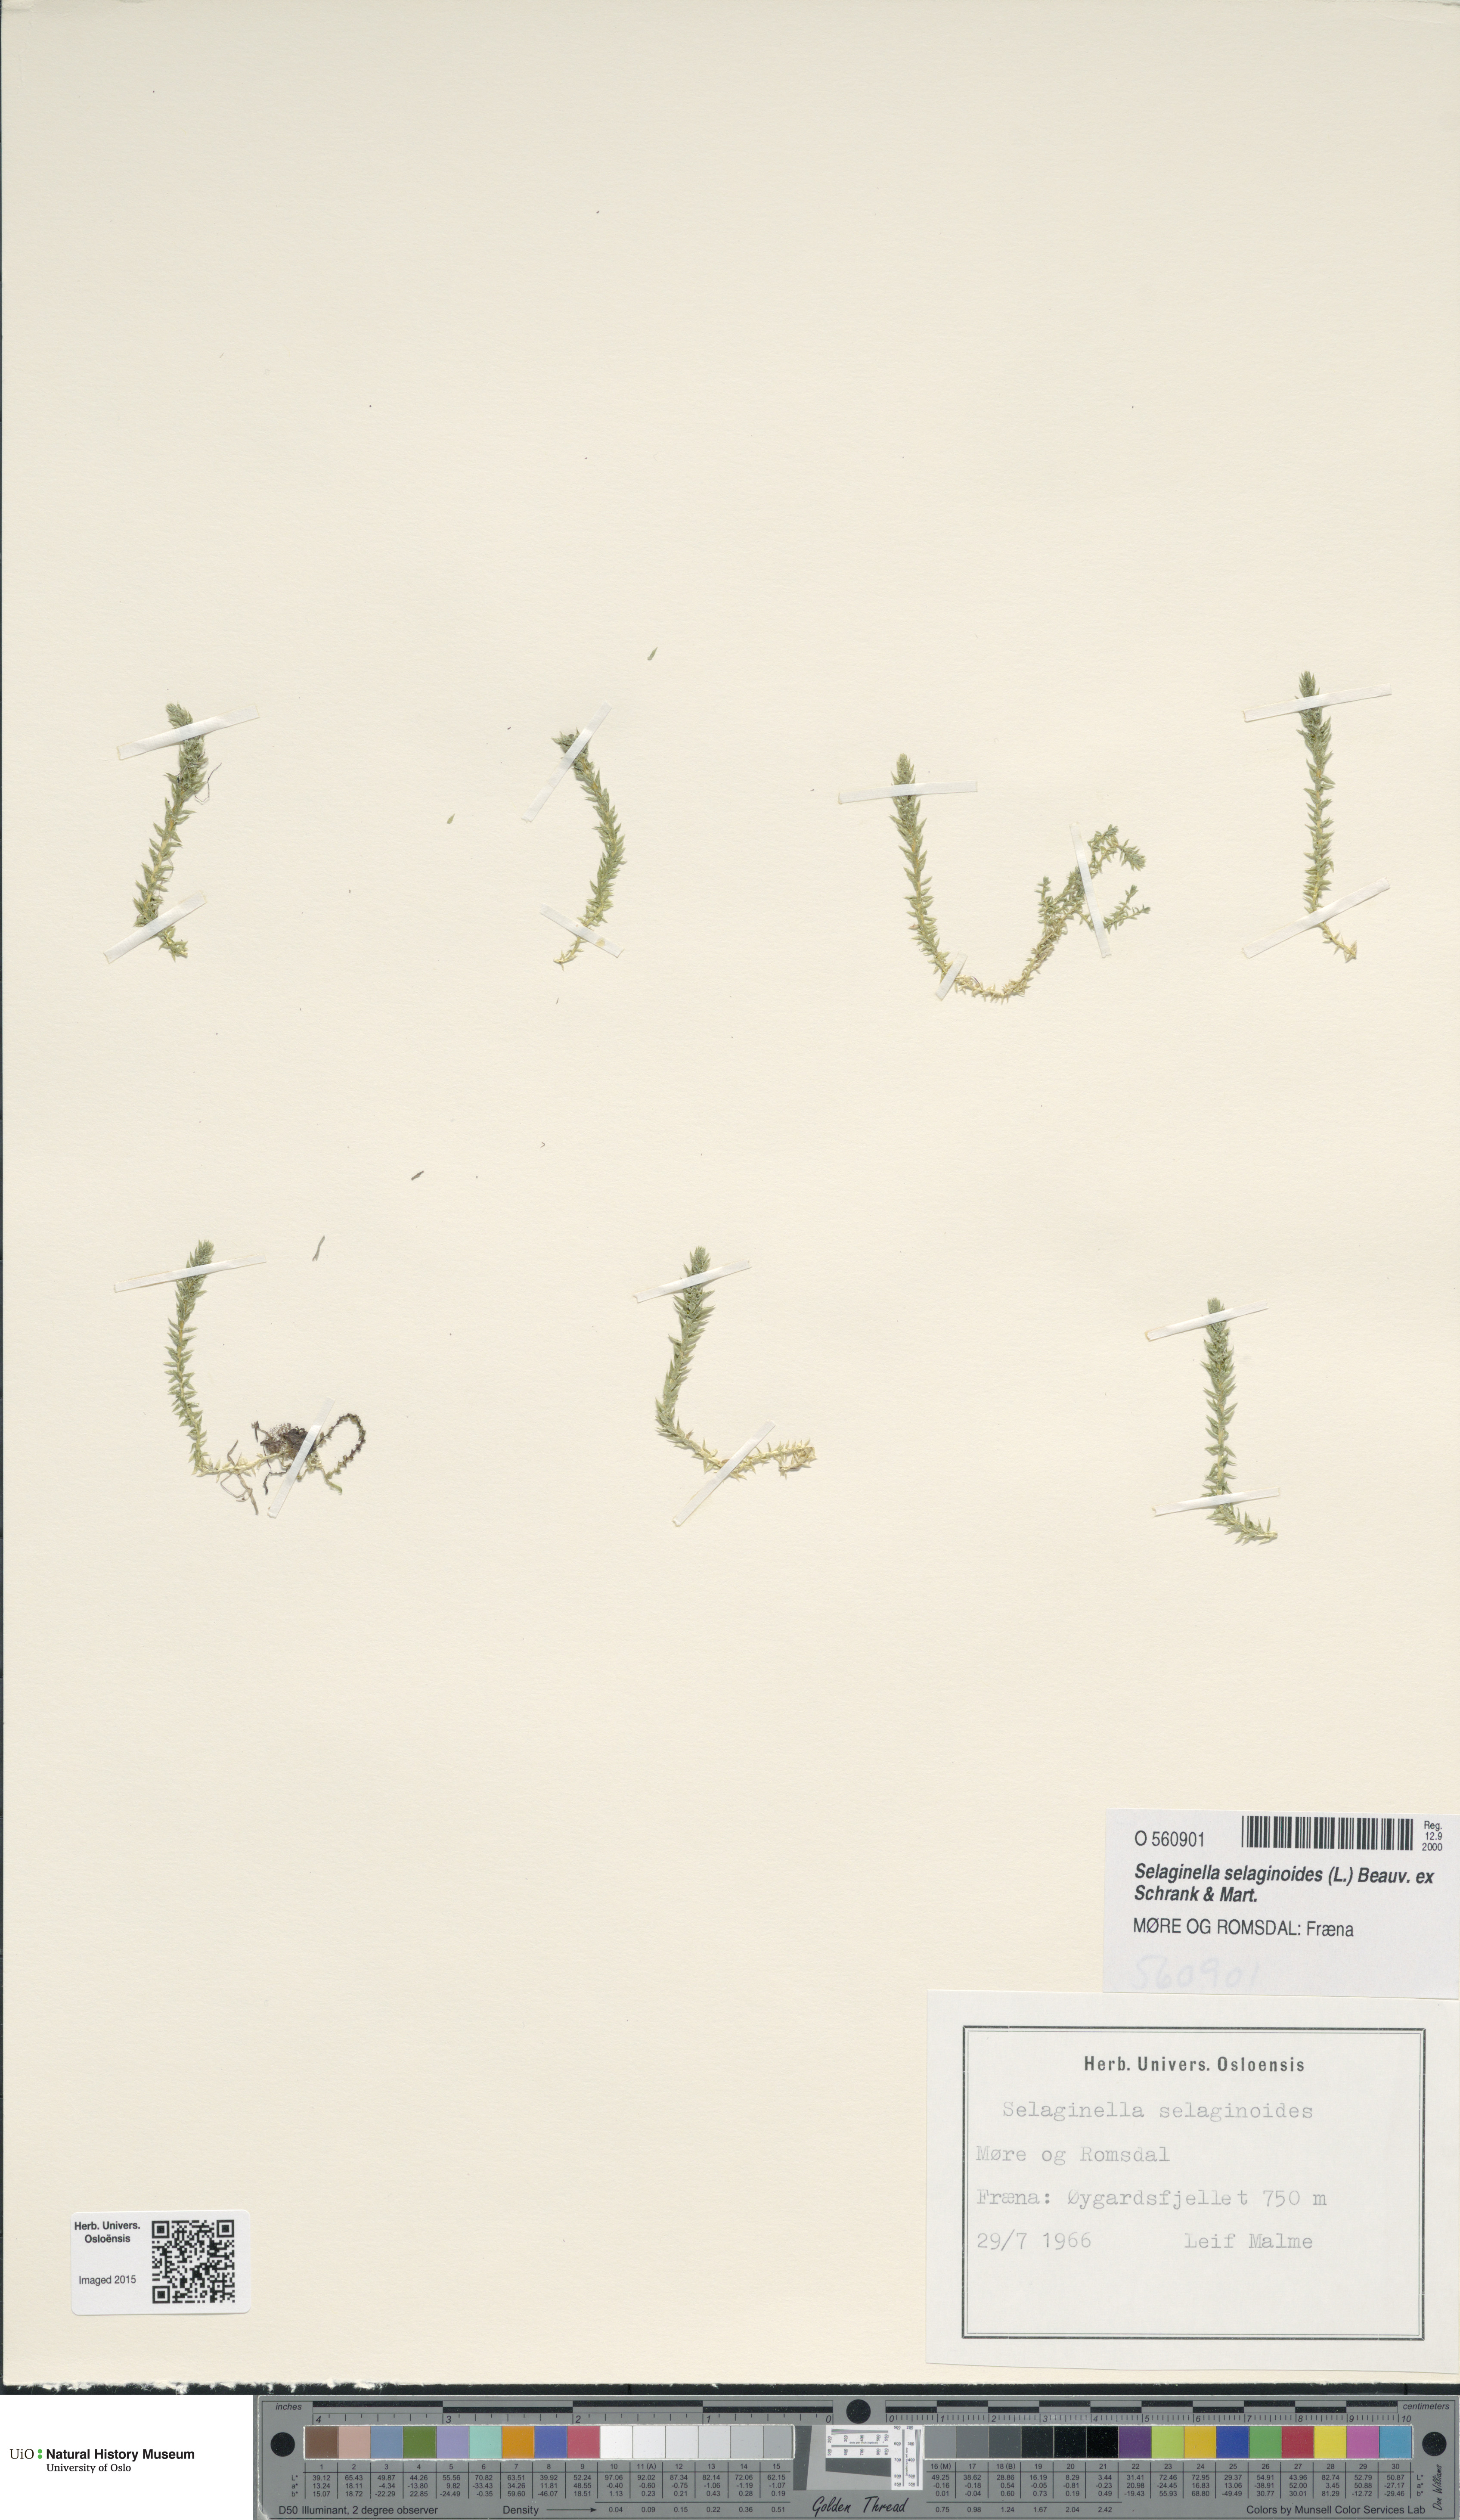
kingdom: Plantae
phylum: Tracheophyta
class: Lycopodiopsida
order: Selaginellales
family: Selaginellaceae
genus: Selaginella
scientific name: Selaginella selaginoides
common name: Prickly mountain-moss
